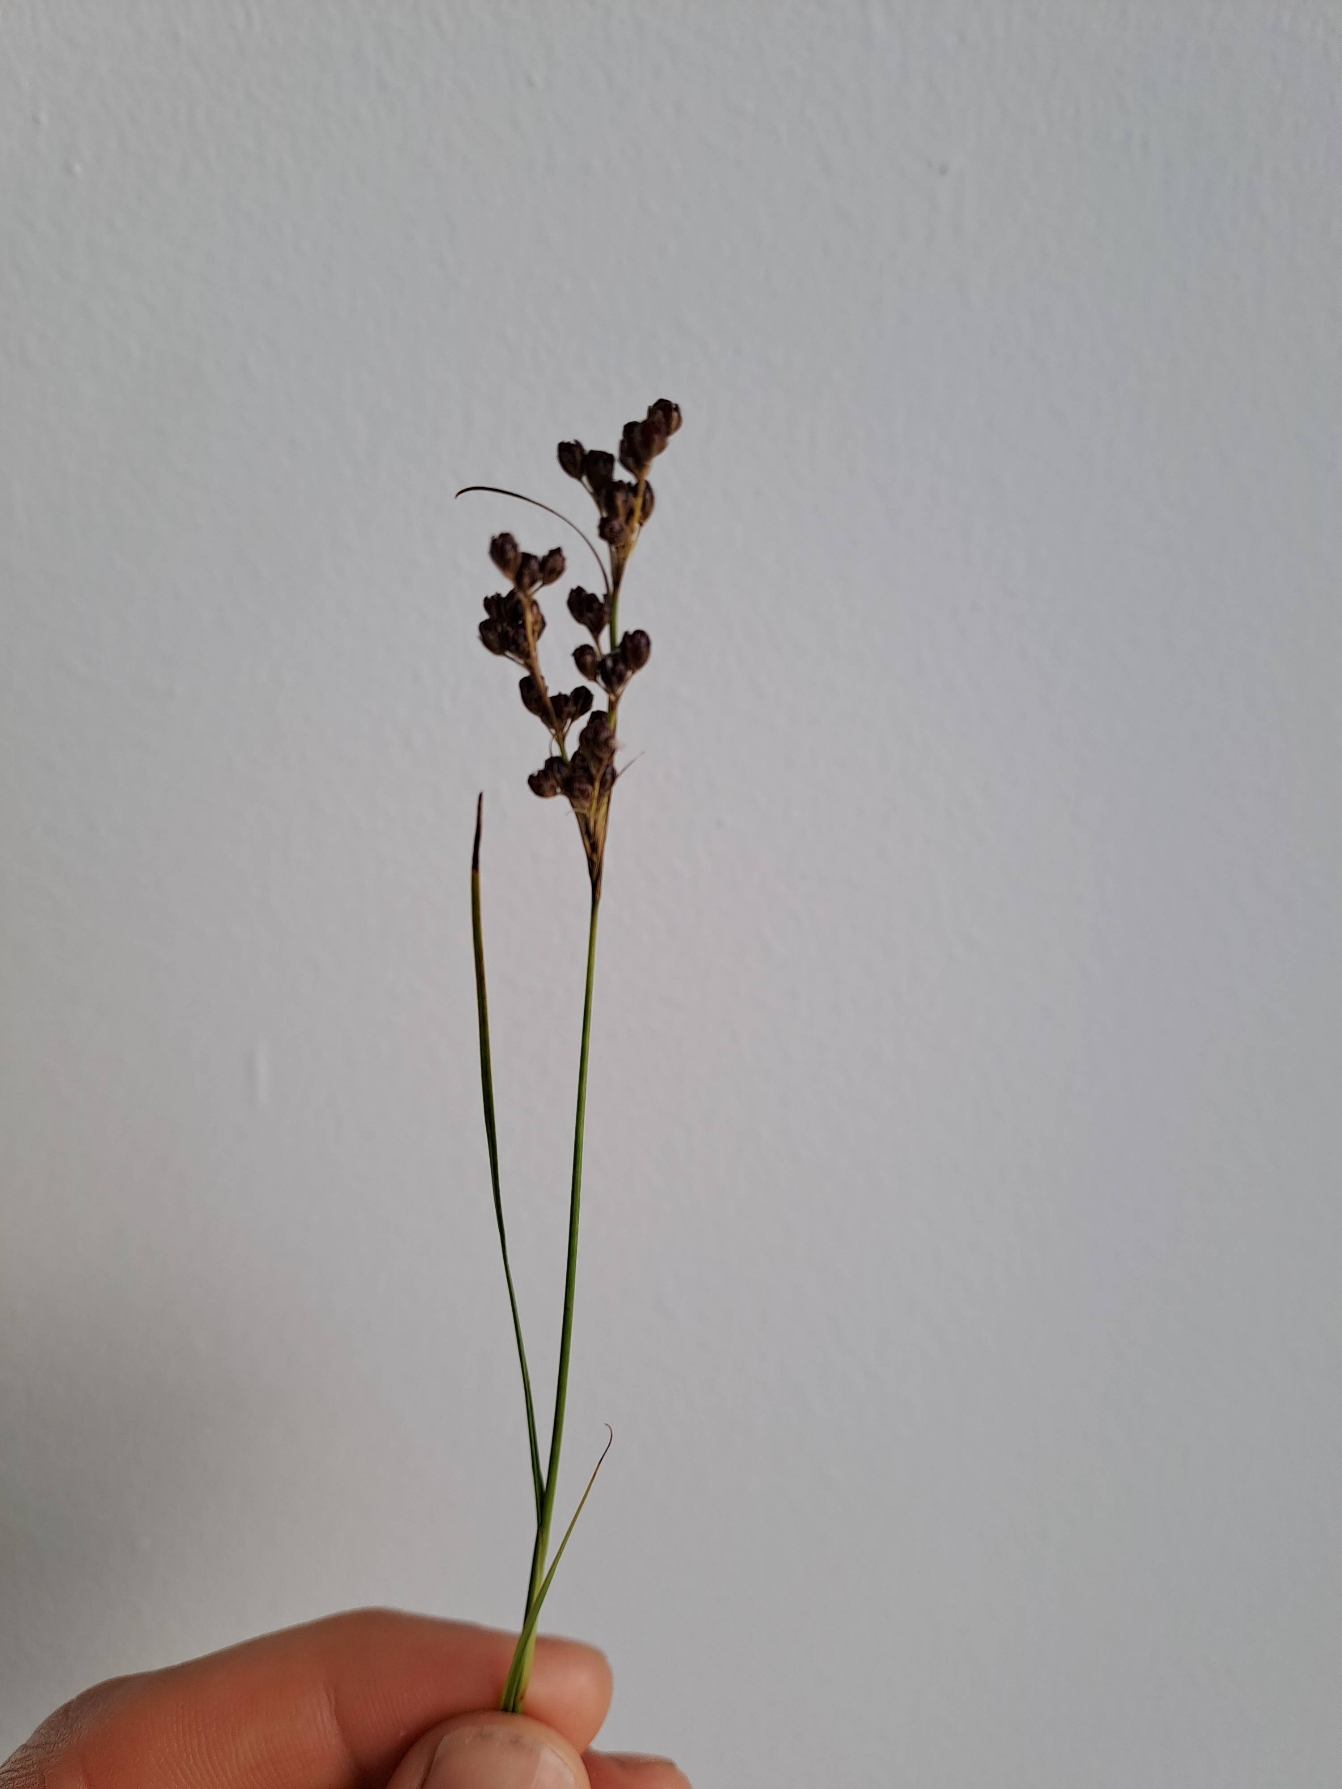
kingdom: Plantae
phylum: Tracheophyta
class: Liliopsida
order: Poales
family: Juncaceae
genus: Juncus
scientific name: Juncus gerardi
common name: Harril
